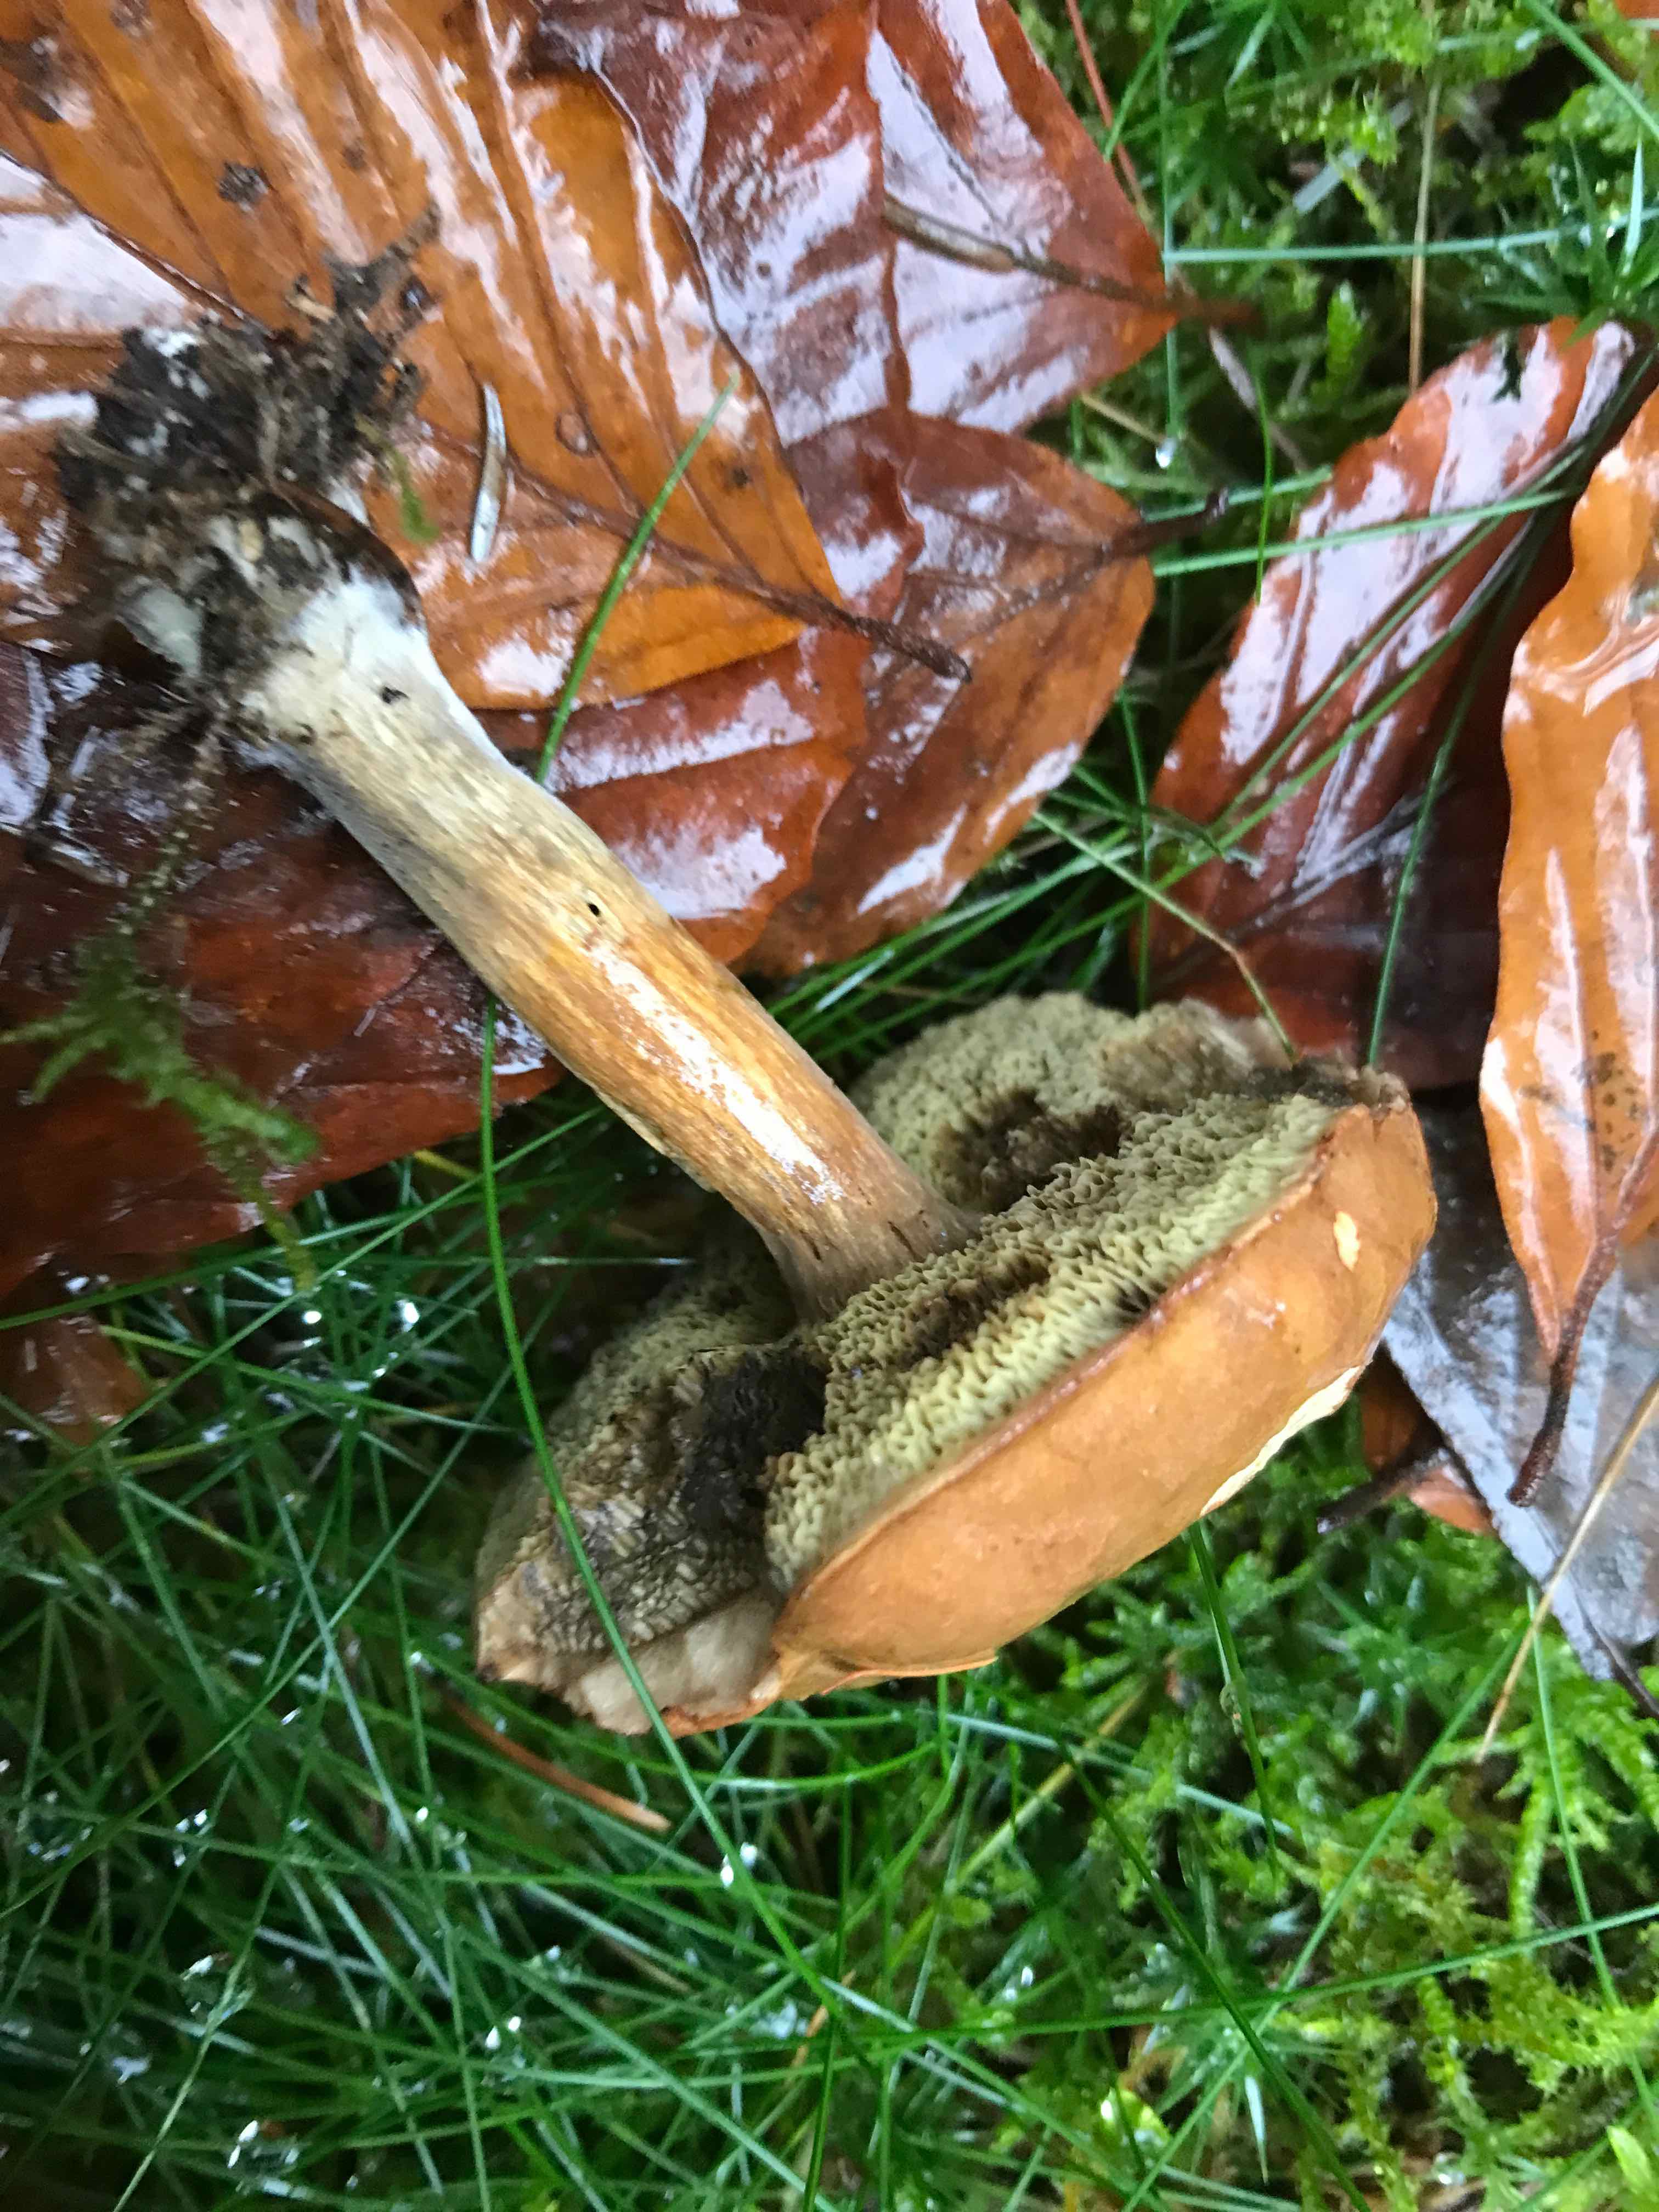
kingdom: Fungi
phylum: Basidiomycota
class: Agaricomycetes
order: Boletales
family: Boletaceae
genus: Imleria
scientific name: Imleria badia
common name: brunstokket rørhat
